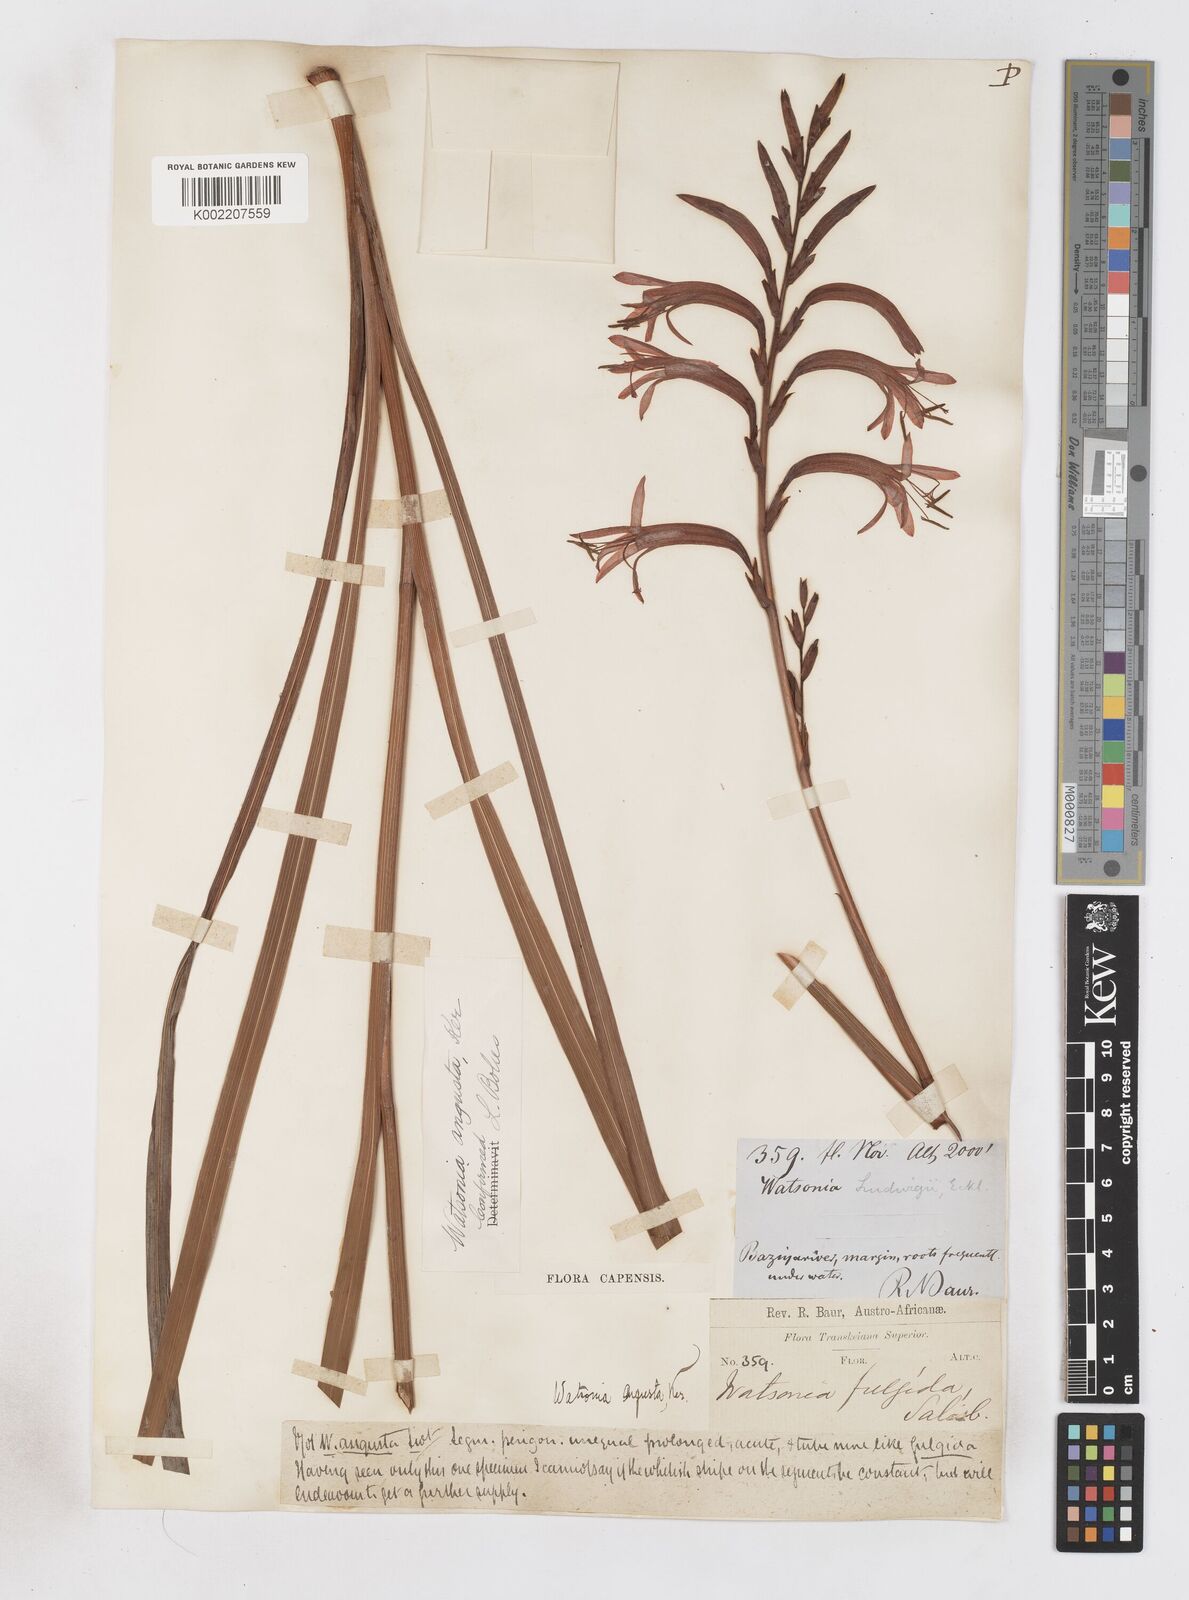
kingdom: Plantae
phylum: Tracheophyta
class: Liliopsida
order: Asparagales
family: Iridaceae
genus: Watsonia
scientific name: Watsonia angusta
